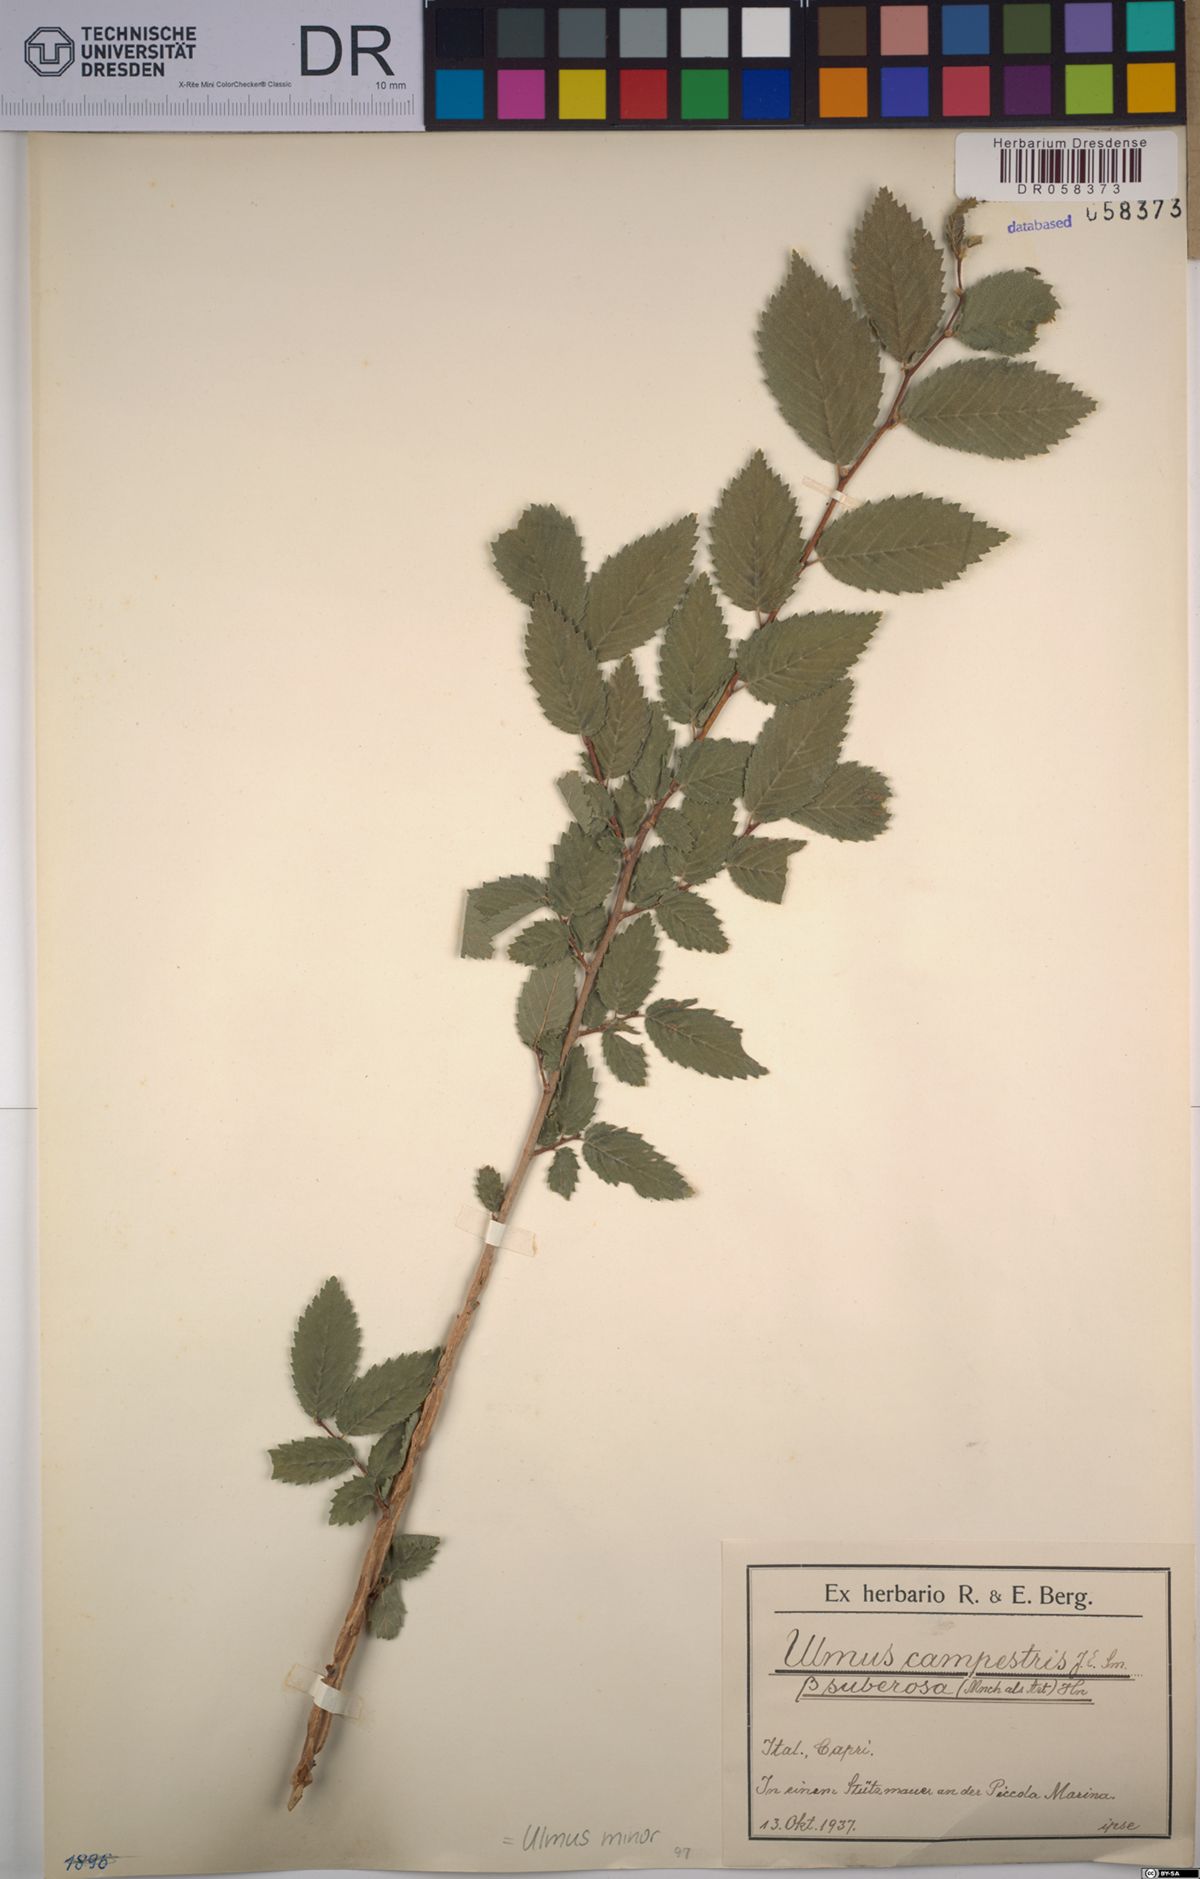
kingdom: Plantae
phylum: Tracheophyta
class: Magnoliopsida
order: Rosales
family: Ulmaceae
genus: Ulmus
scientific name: Ulmus minor
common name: Small-leaved elm
